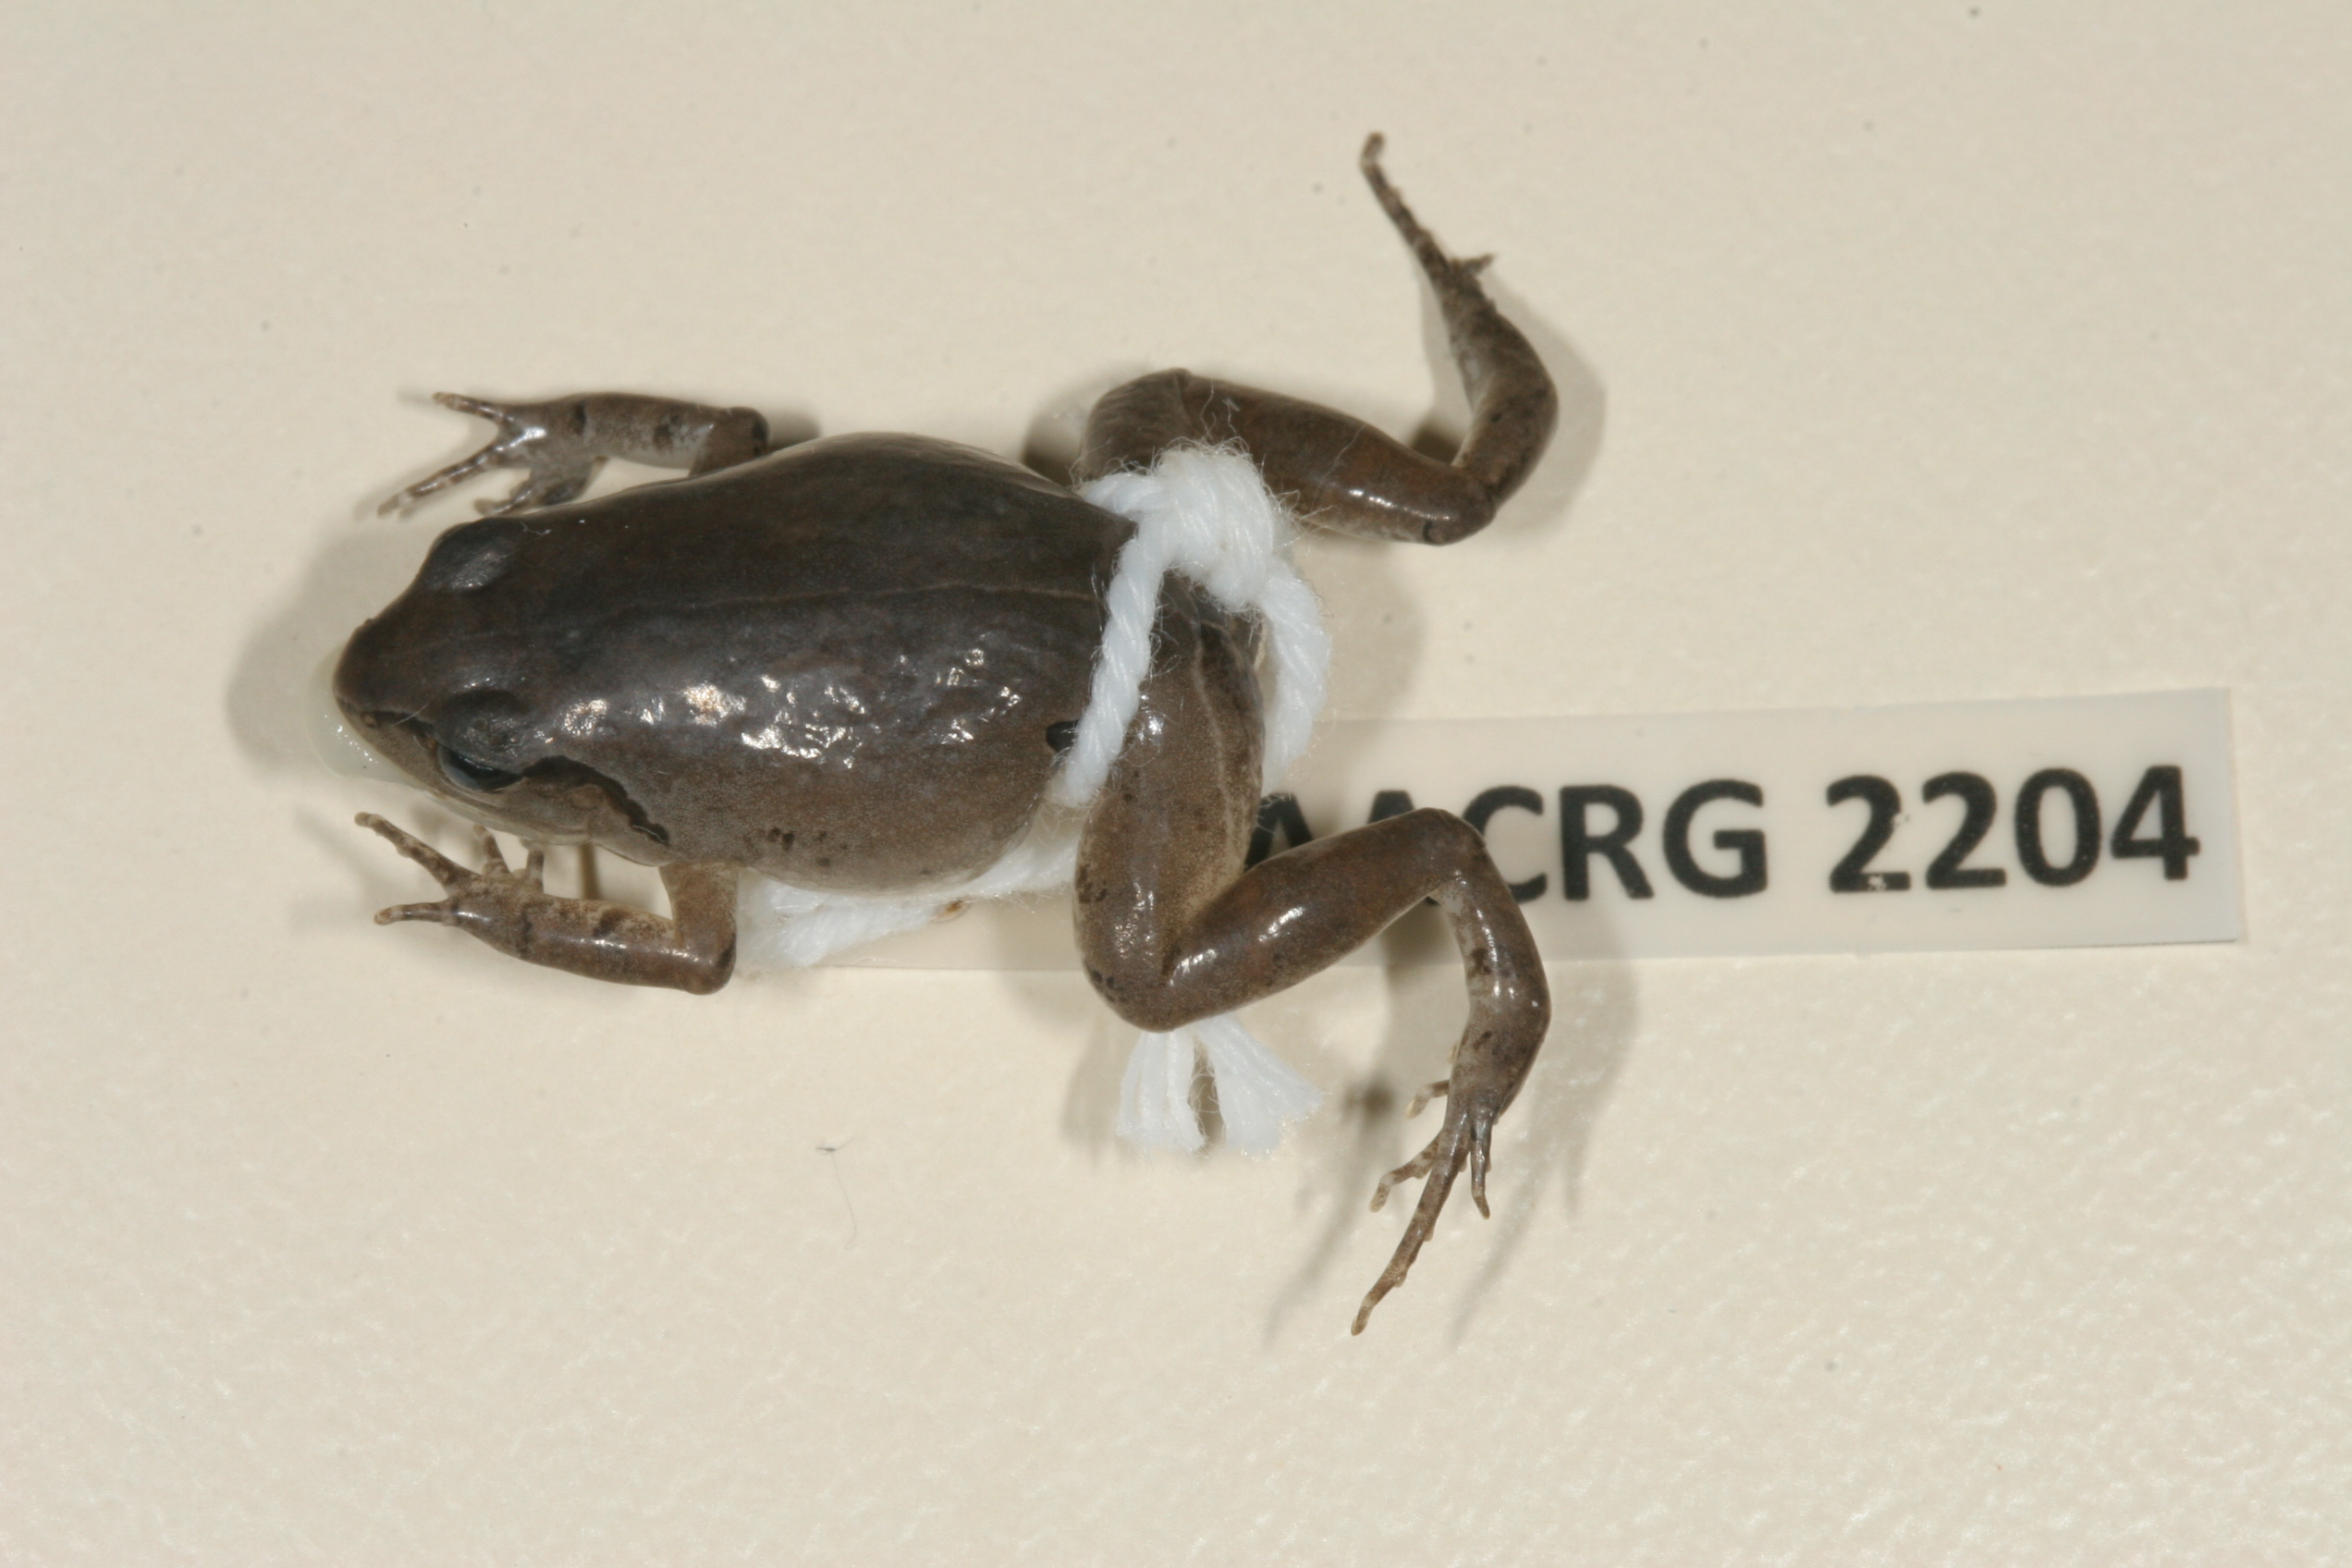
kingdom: Animalia
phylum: Chordata
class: Amphibia
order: Anura
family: Arthroleptidae
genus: Arthroleptis
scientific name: Arthroleptis wahlbergii
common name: Bush squeaker
